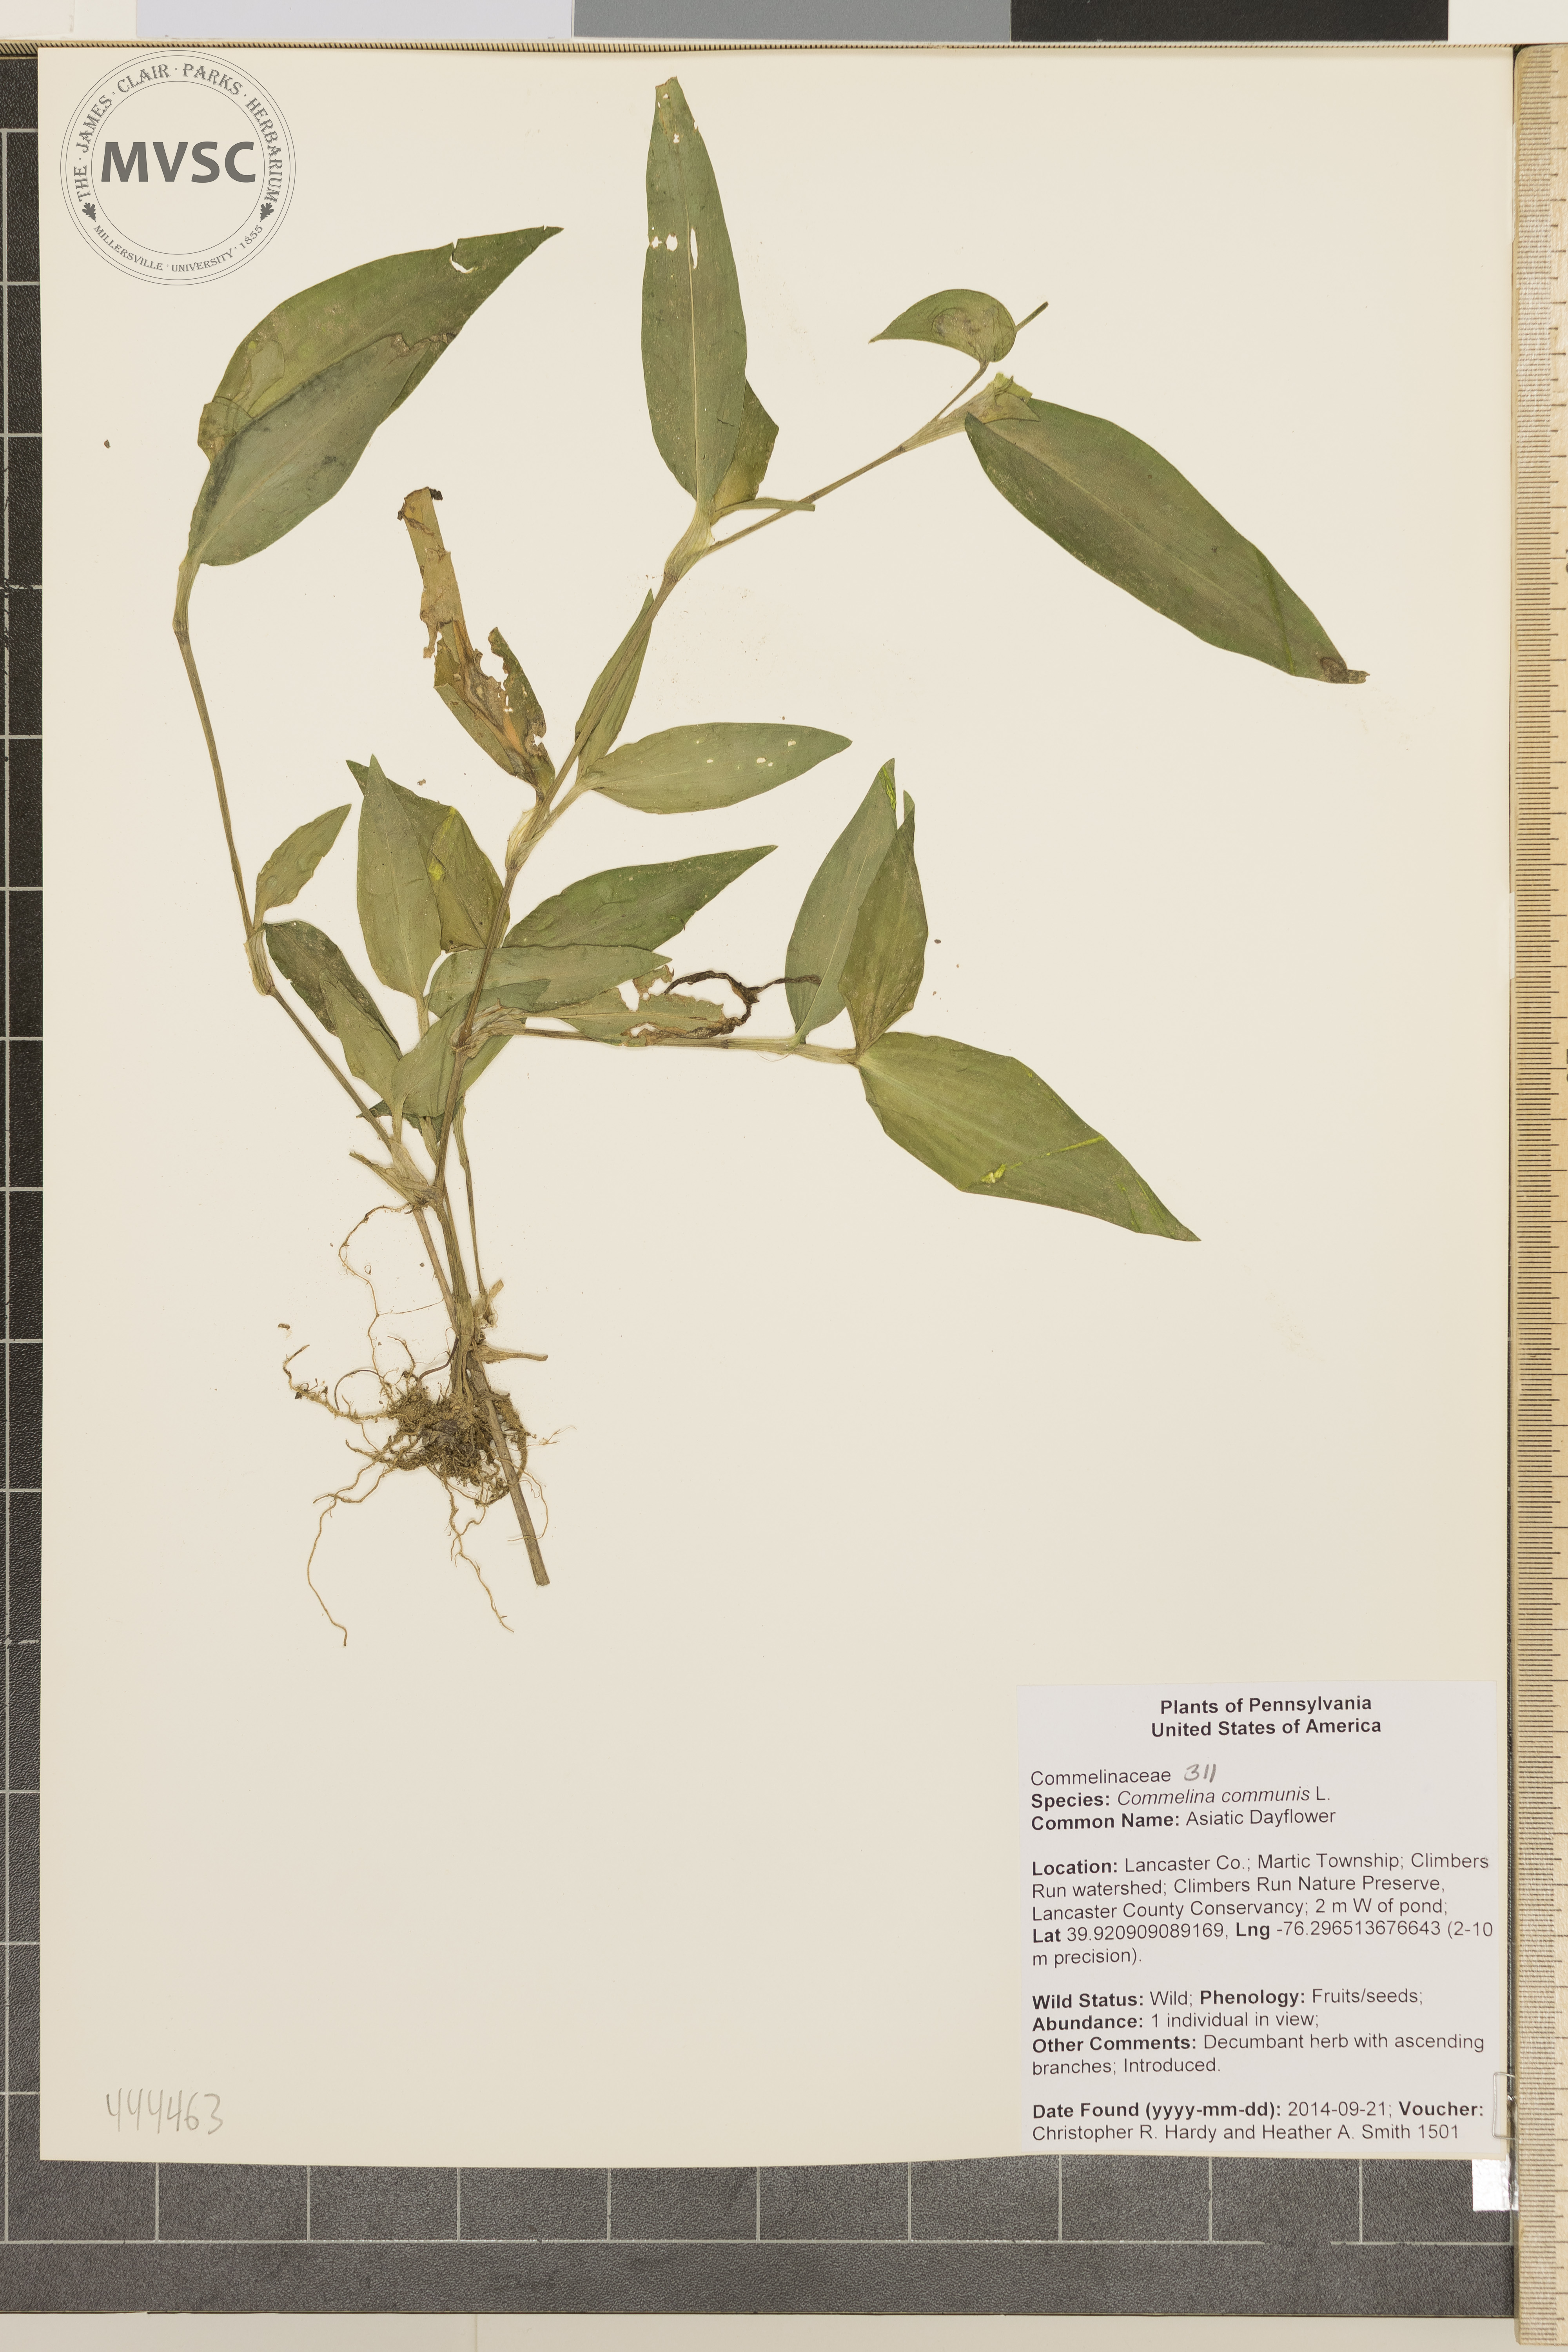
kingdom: Plantae
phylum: Tracheophyta
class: Liliopsida
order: Commelinales
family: Commelinaceae
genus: Commelina
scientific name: Commelina communis
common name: Asiatic dayflower
